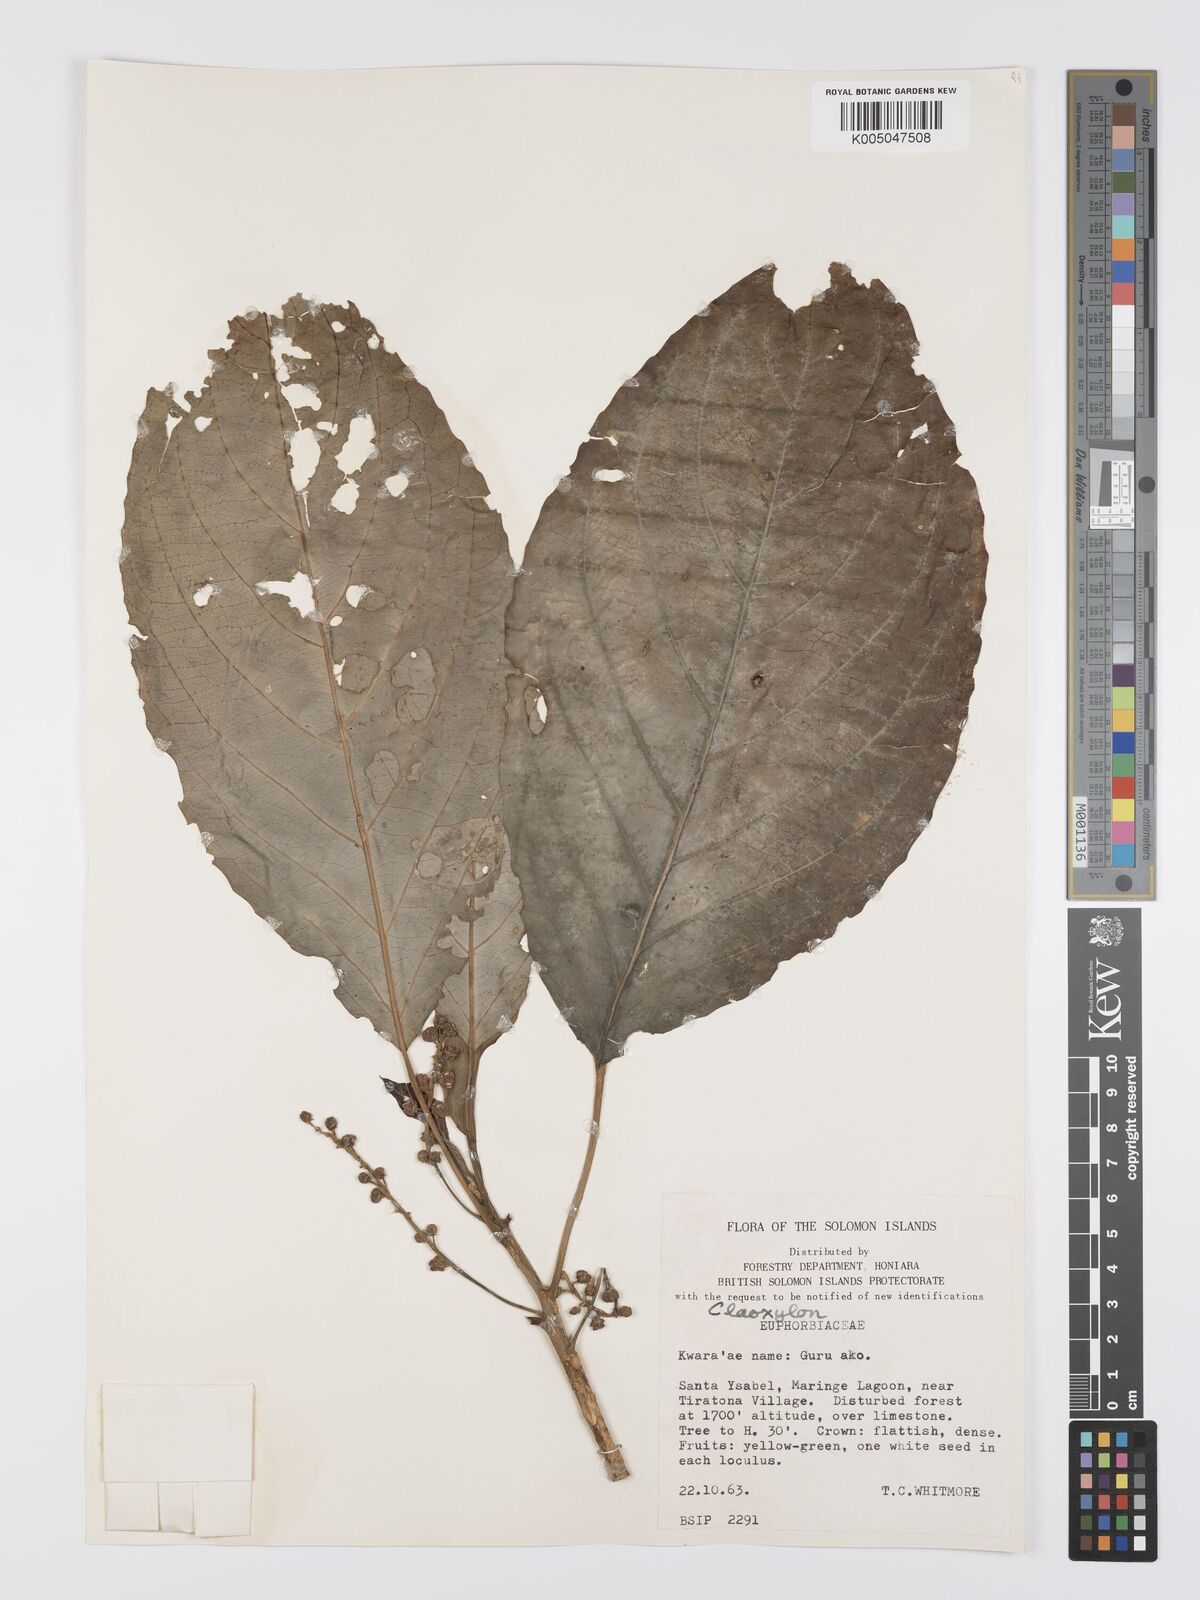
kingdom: Plantae
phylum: Tracheophyta
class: Magnoliopsida
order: Malpighiales
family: Euphorbiaceae
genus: Claoxylon
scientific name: Claoxylon carolinianum
